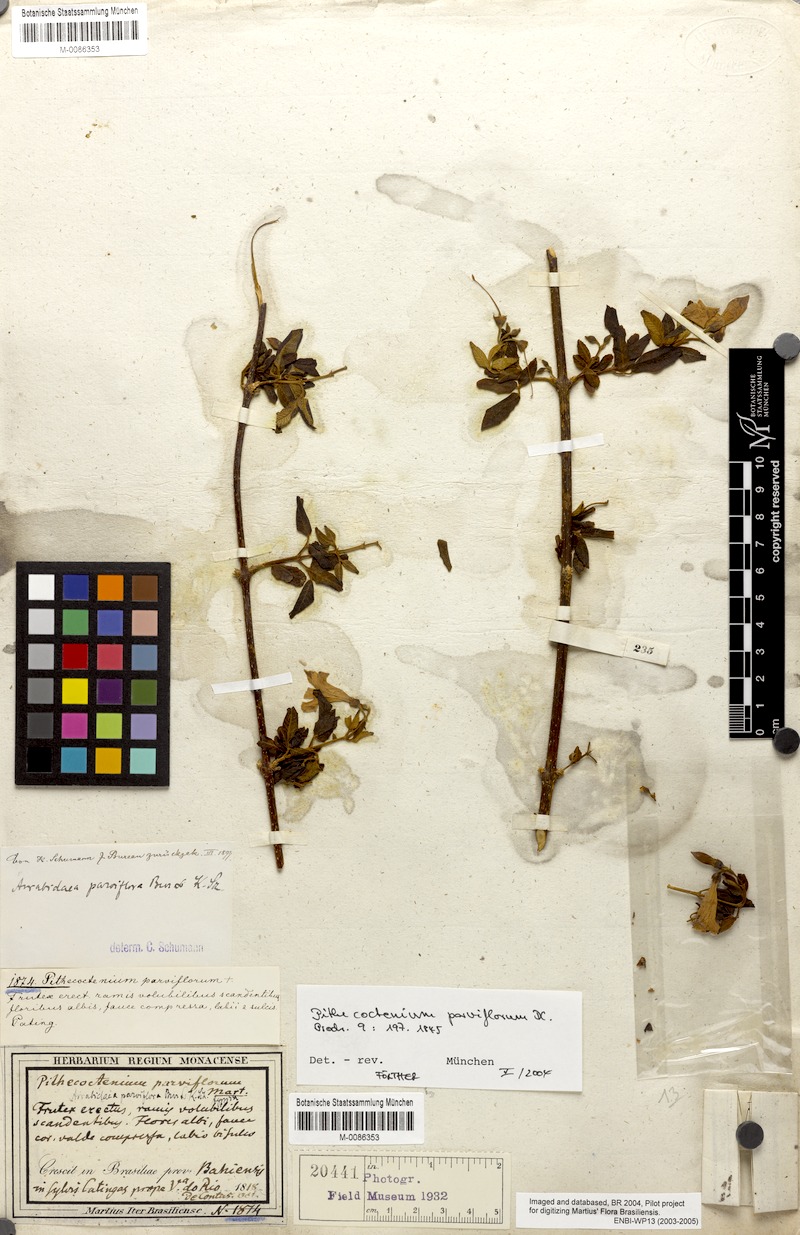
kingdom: Plantae
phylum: Tracheophyta
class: Magnoliopsida
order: Lamiales
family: Bignoniaceae
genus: Tanaecium
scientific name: Tanaecium parviflorum
